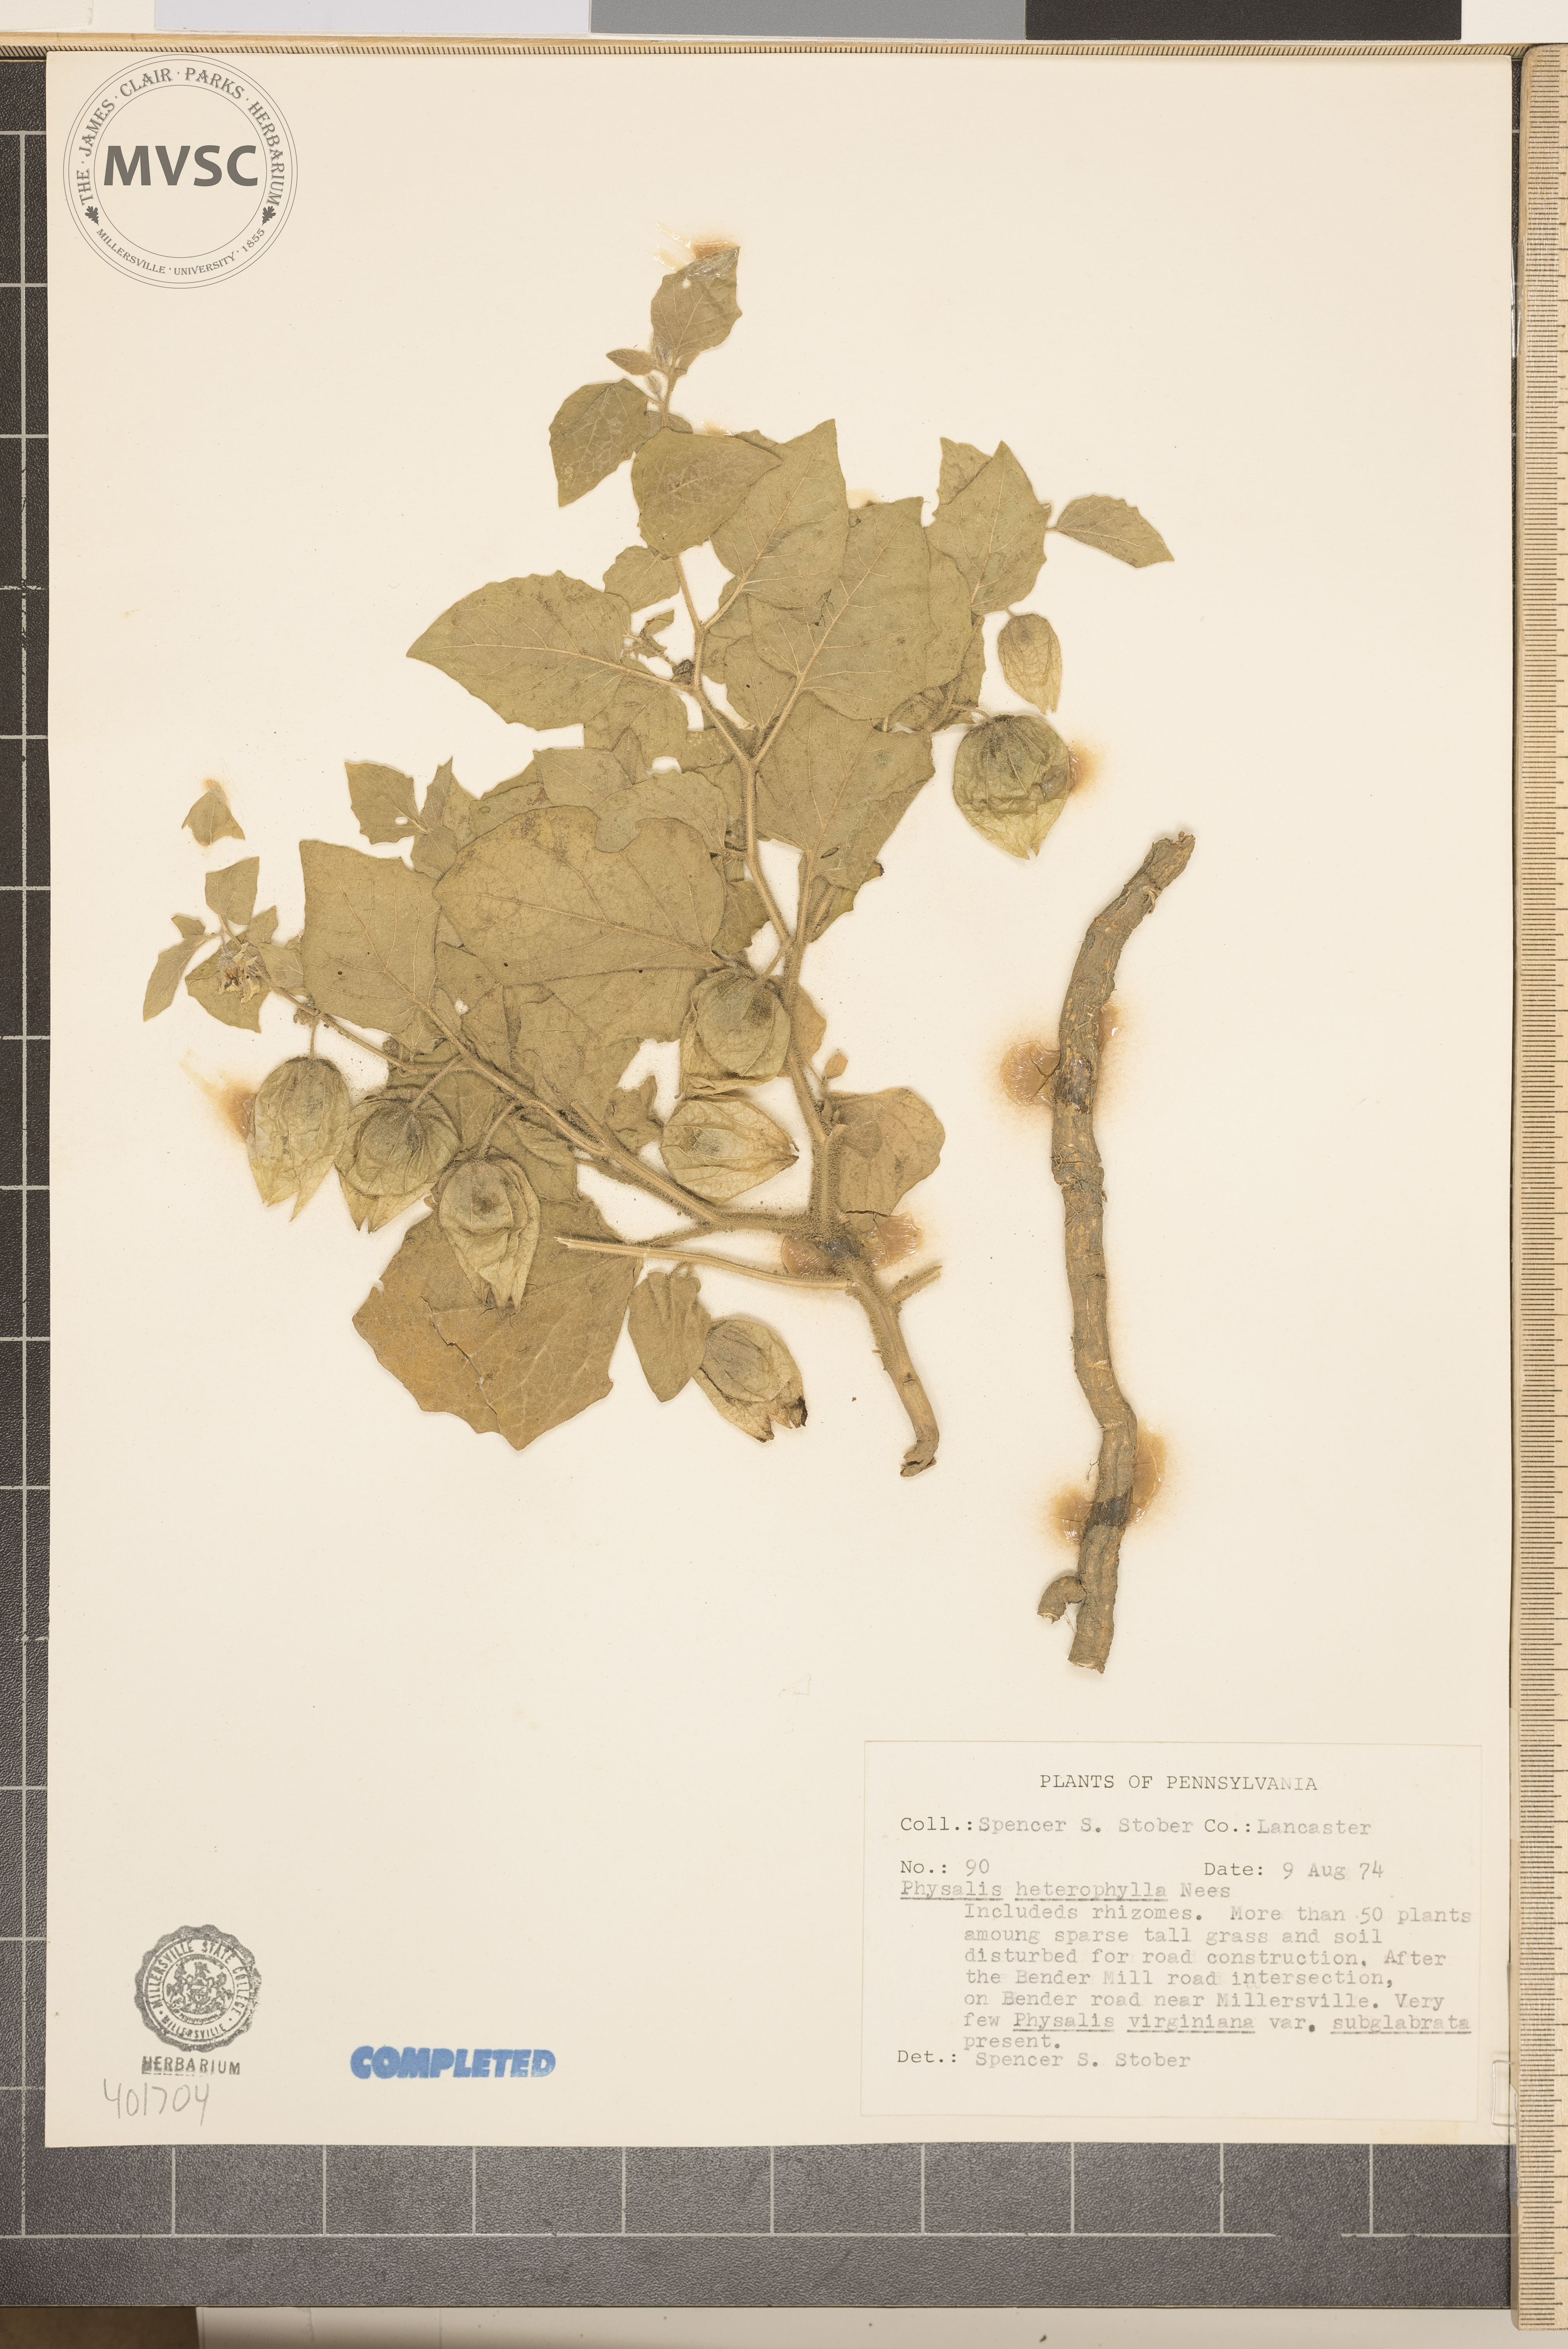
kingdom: Plantae
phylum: Tracheophyta
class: Magnoliopsida
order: Solanales
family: Solanaceae
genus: Physalis
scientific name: Physalis heterophylla
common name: Clammy ground-cherry
